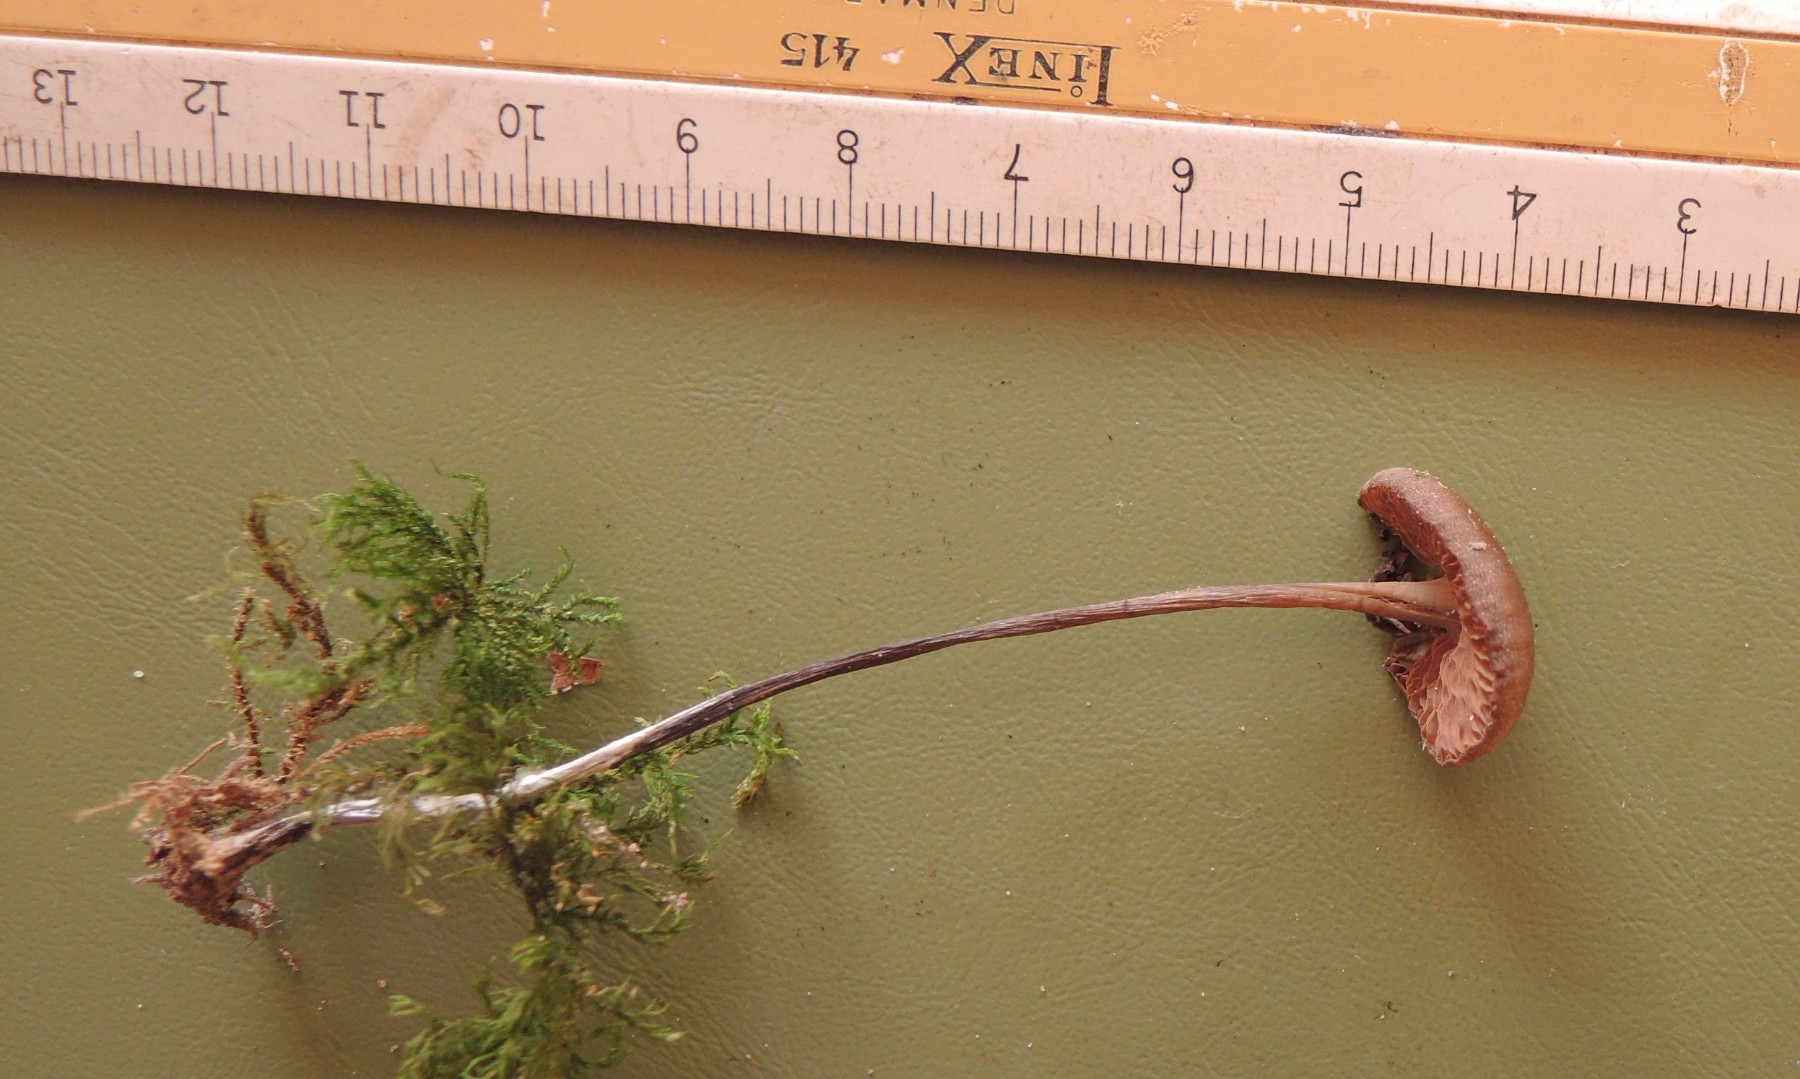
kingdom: Fungi
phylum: Basidiomycota
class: Agaricomycetes
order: Agaricales
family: Entolomataceae
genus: Entoloma
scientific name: Entoloma hebes
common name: krat-rødblad
